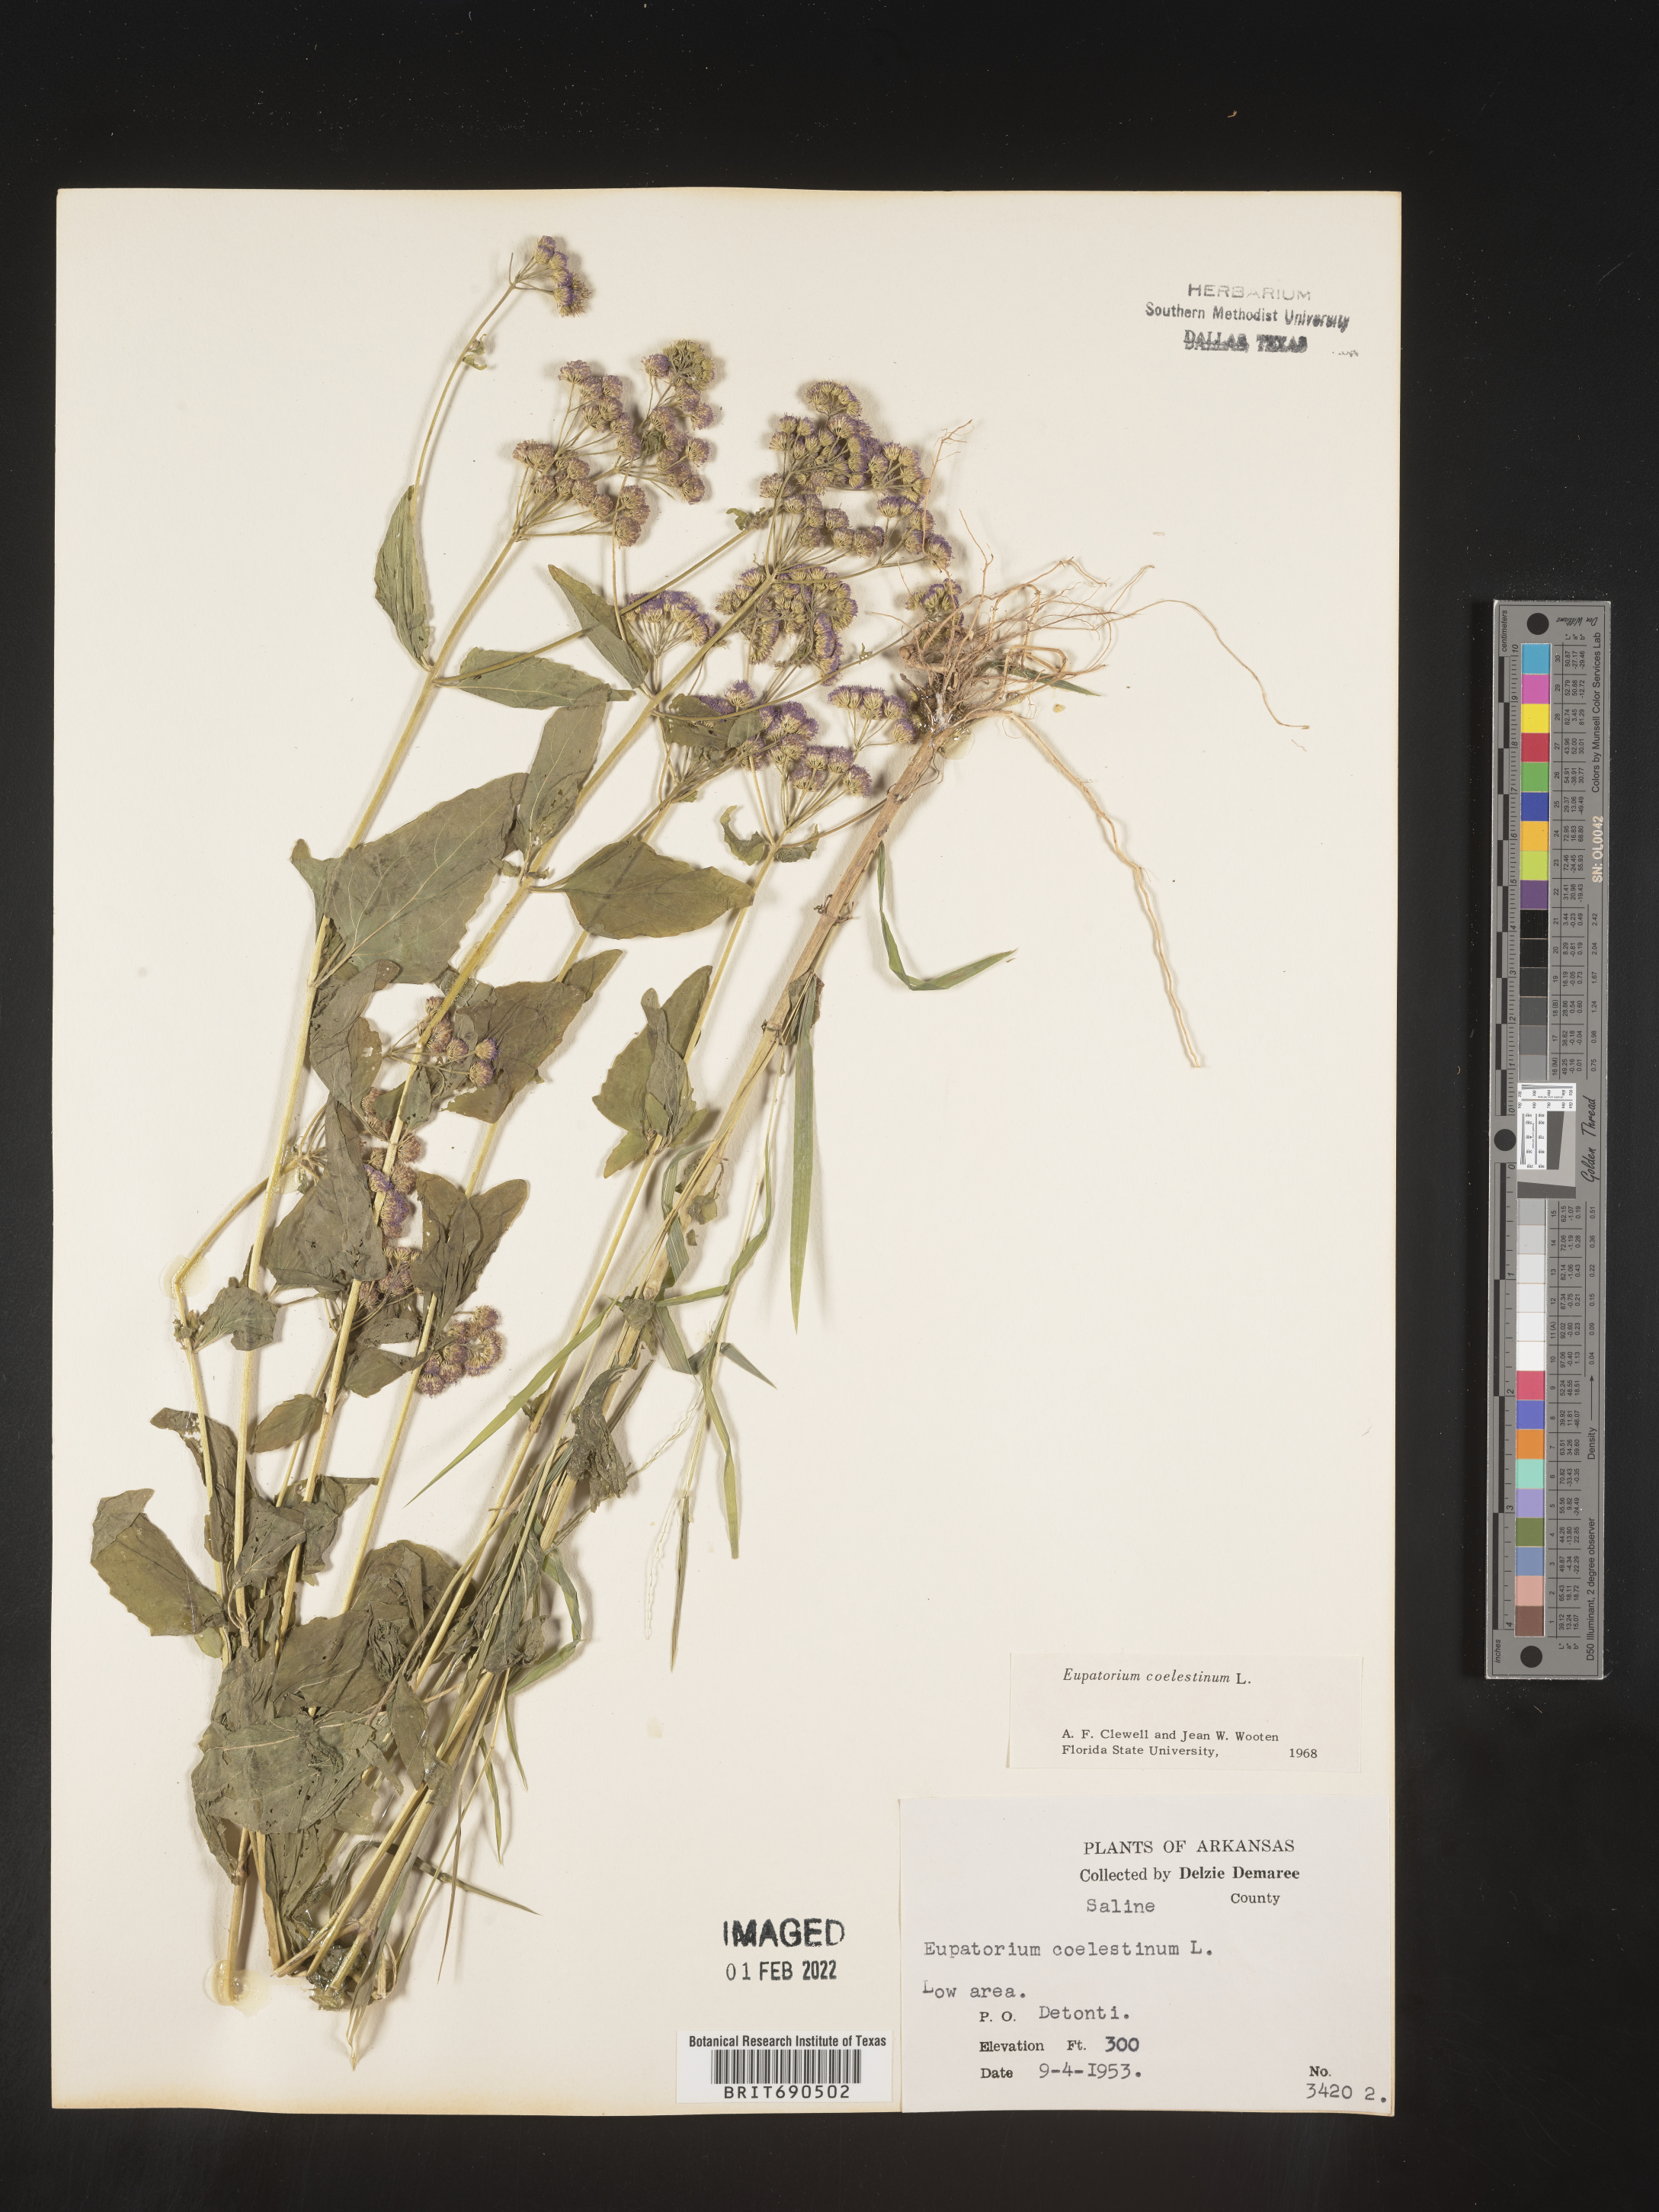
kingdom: Plantae
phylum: Tracheophyta
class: Magnoliopsida
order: Asterales
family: Asteraceae
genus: Conoclinium
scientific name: Conoclinium coelestinum
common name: Blue mistflower
